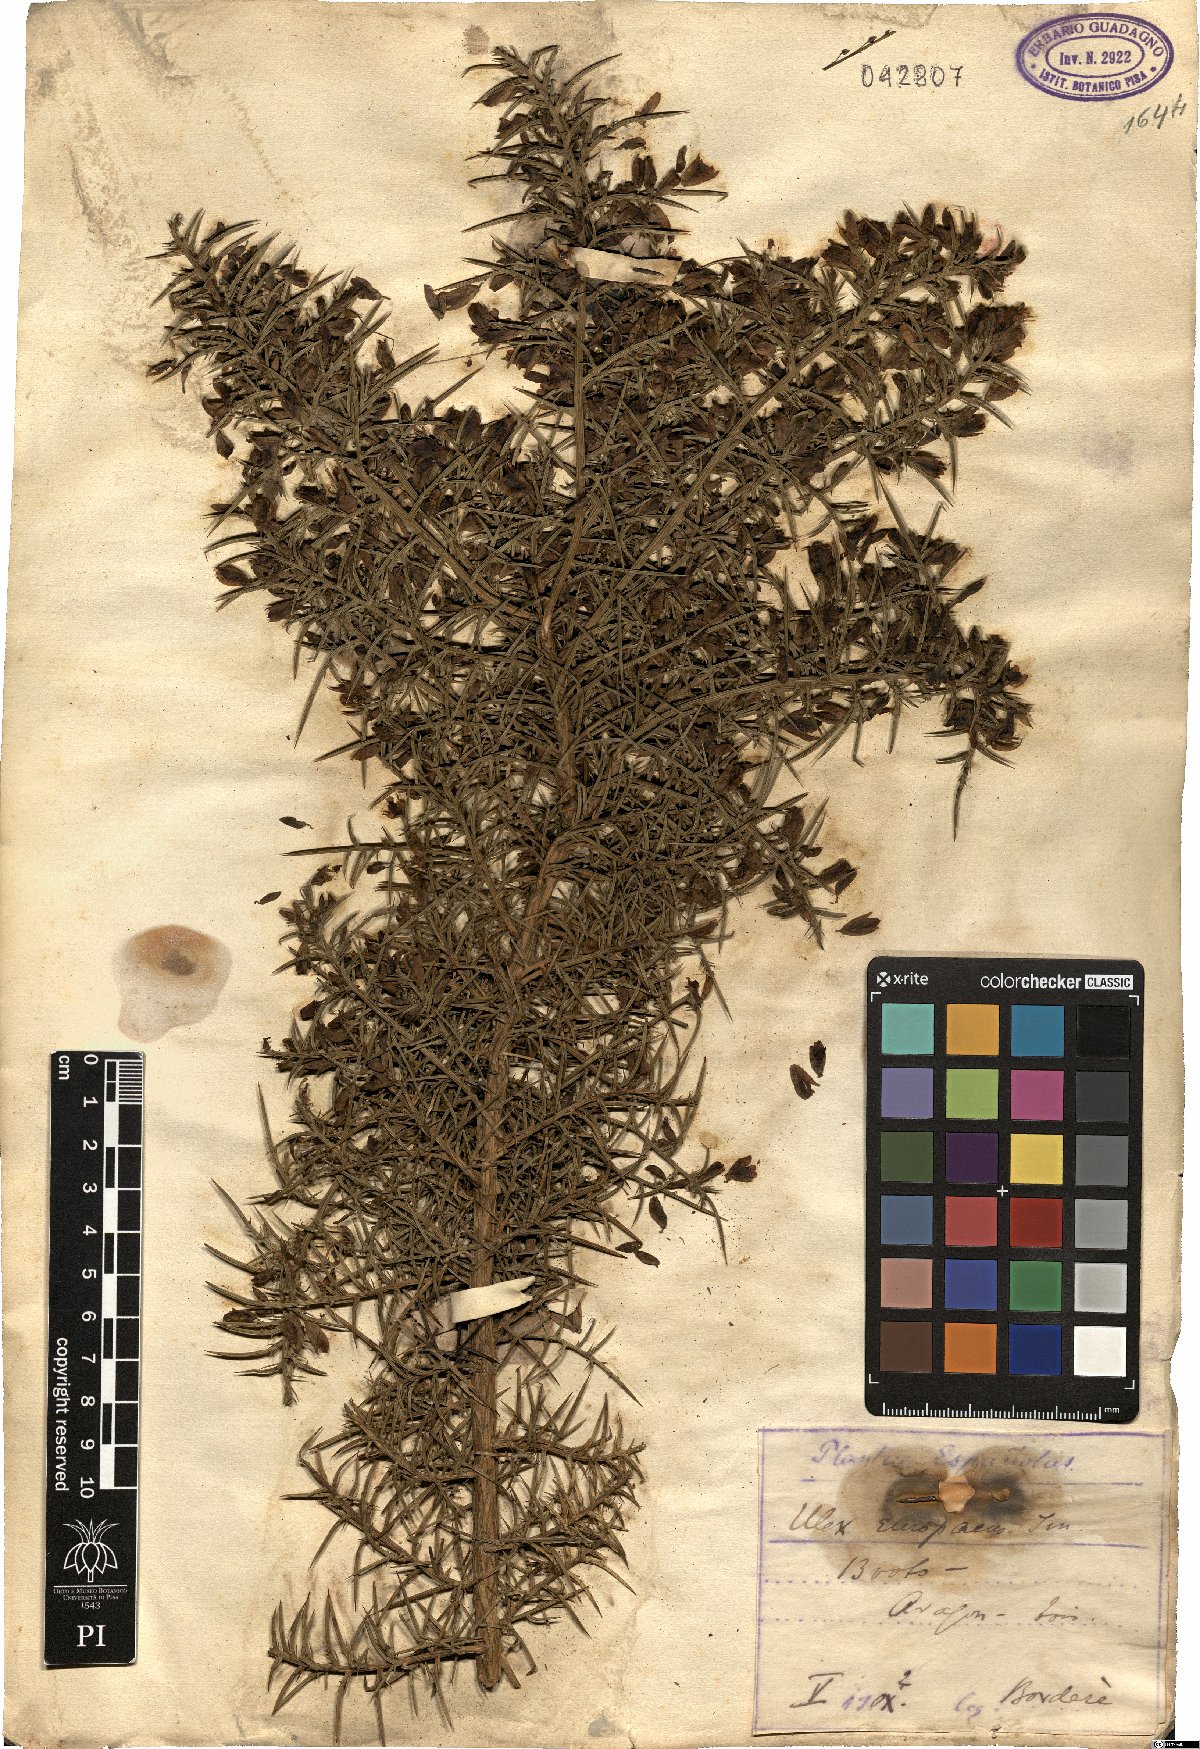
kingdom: Plantae
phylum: Tracheophyta
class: Magnoliopsida
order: Fabales
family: Fabaceae
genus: Ulex
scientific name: Ulex europaeus
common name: Common gorse
